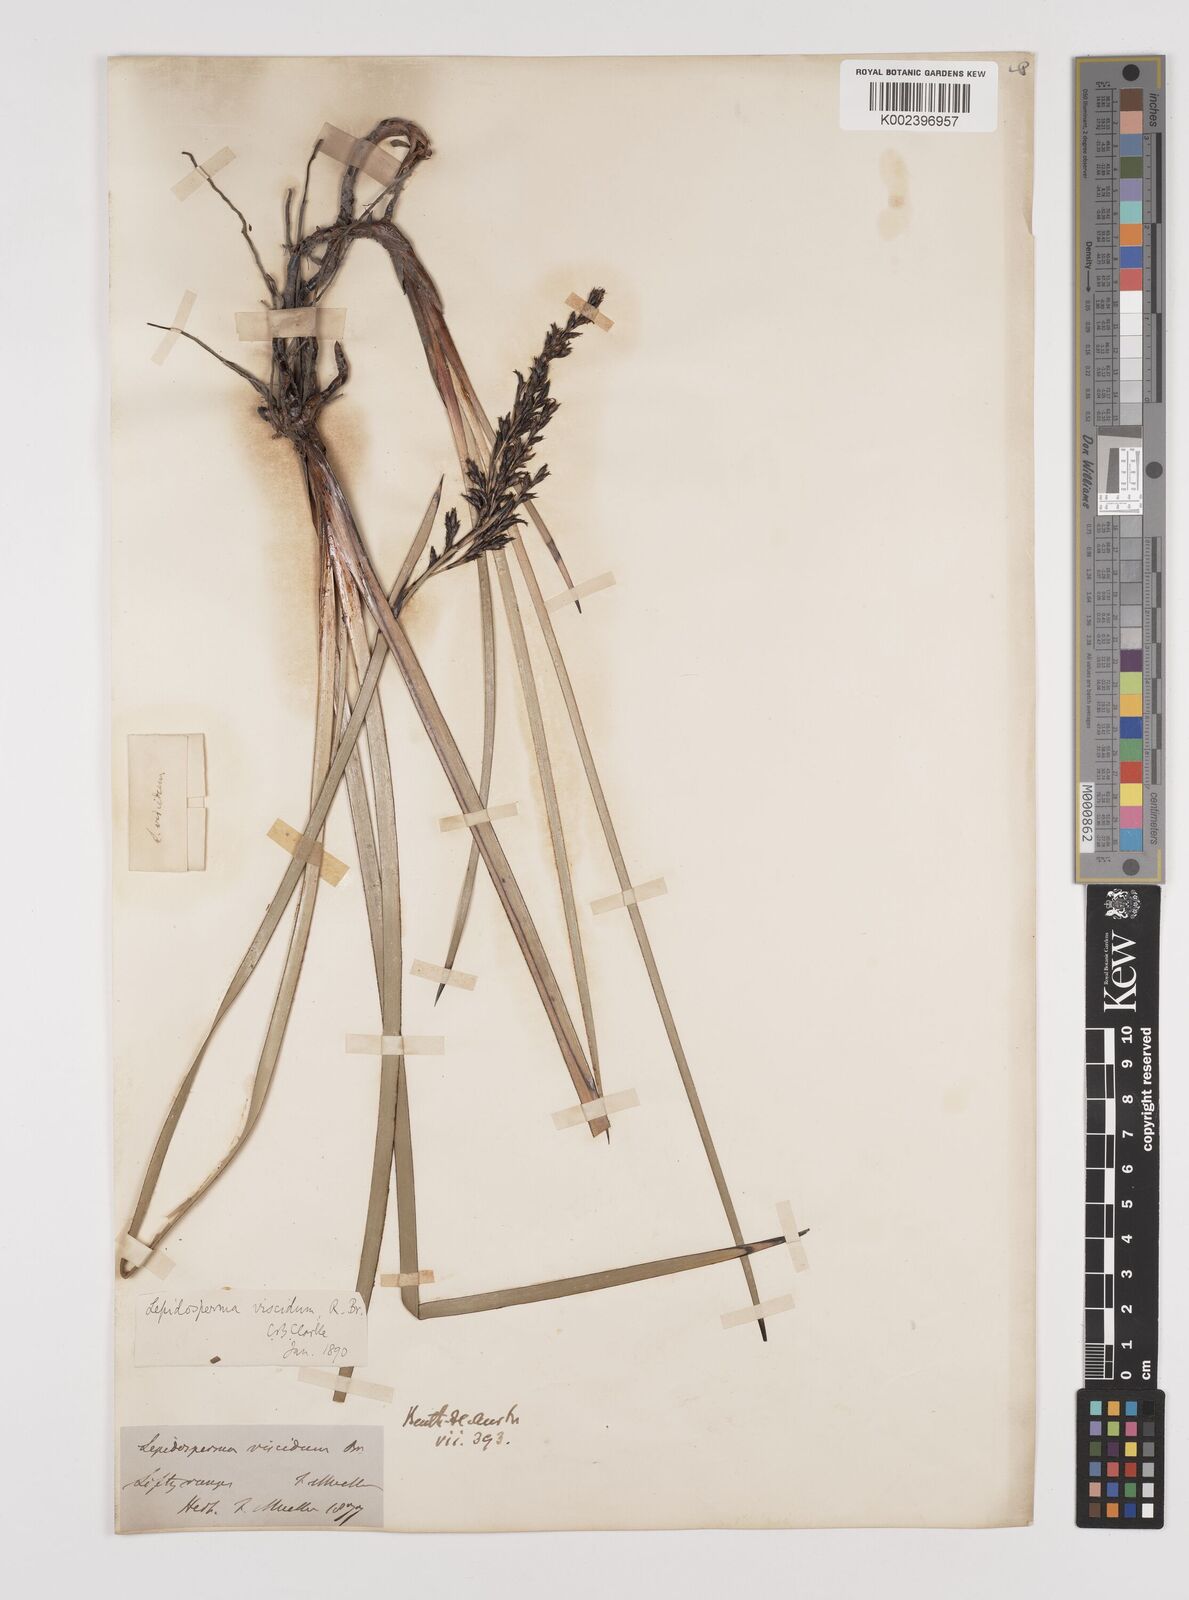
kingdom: Plantae
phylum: Tracheophyta
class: Liliopsida
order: Poales
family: Cyperaceae
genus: Lepidosperma
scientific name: Lepidosperma viscidum
